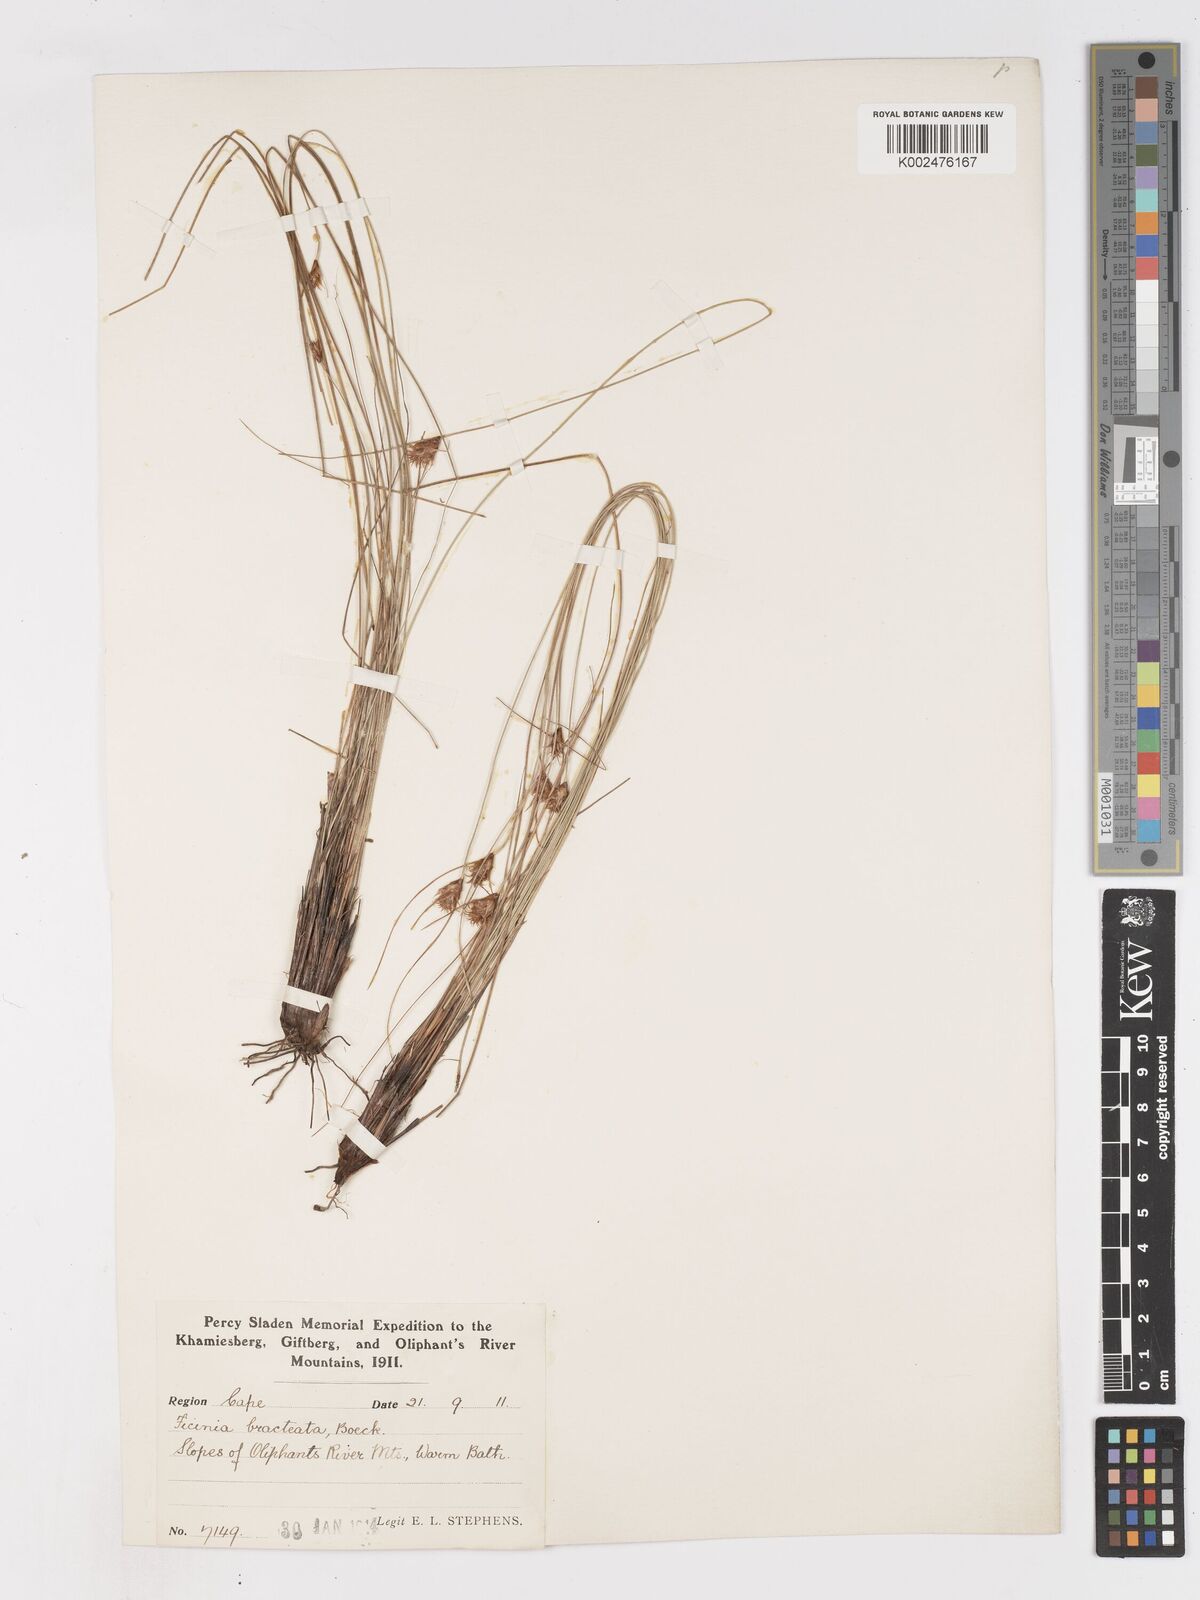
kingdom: Plantae
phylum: Tracheophyta
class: Liliopsida
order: Poales
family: Cyperaceae
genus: Ficinia
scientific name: Ficinia nigrescens
